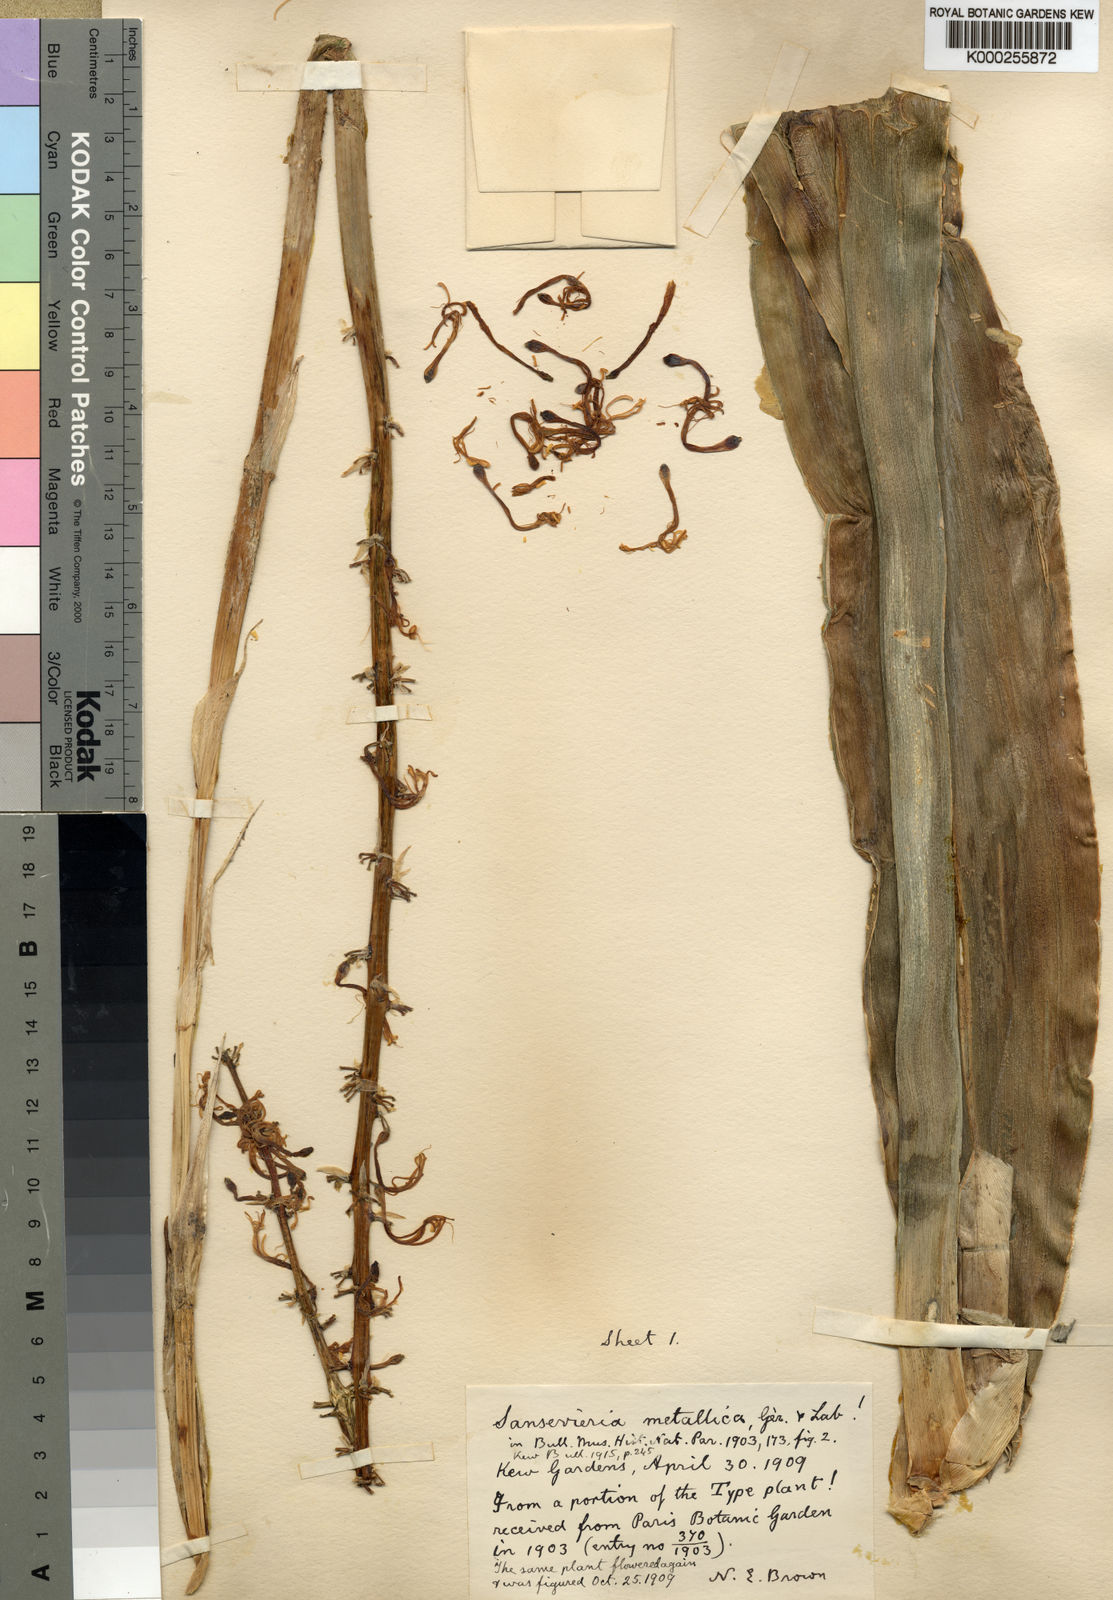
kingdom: Plantae
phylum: Tracheophyta
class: Liliopsida
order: Asparagales
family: Asparagaceae
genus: Dracaena
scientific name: Dracaena zebra
